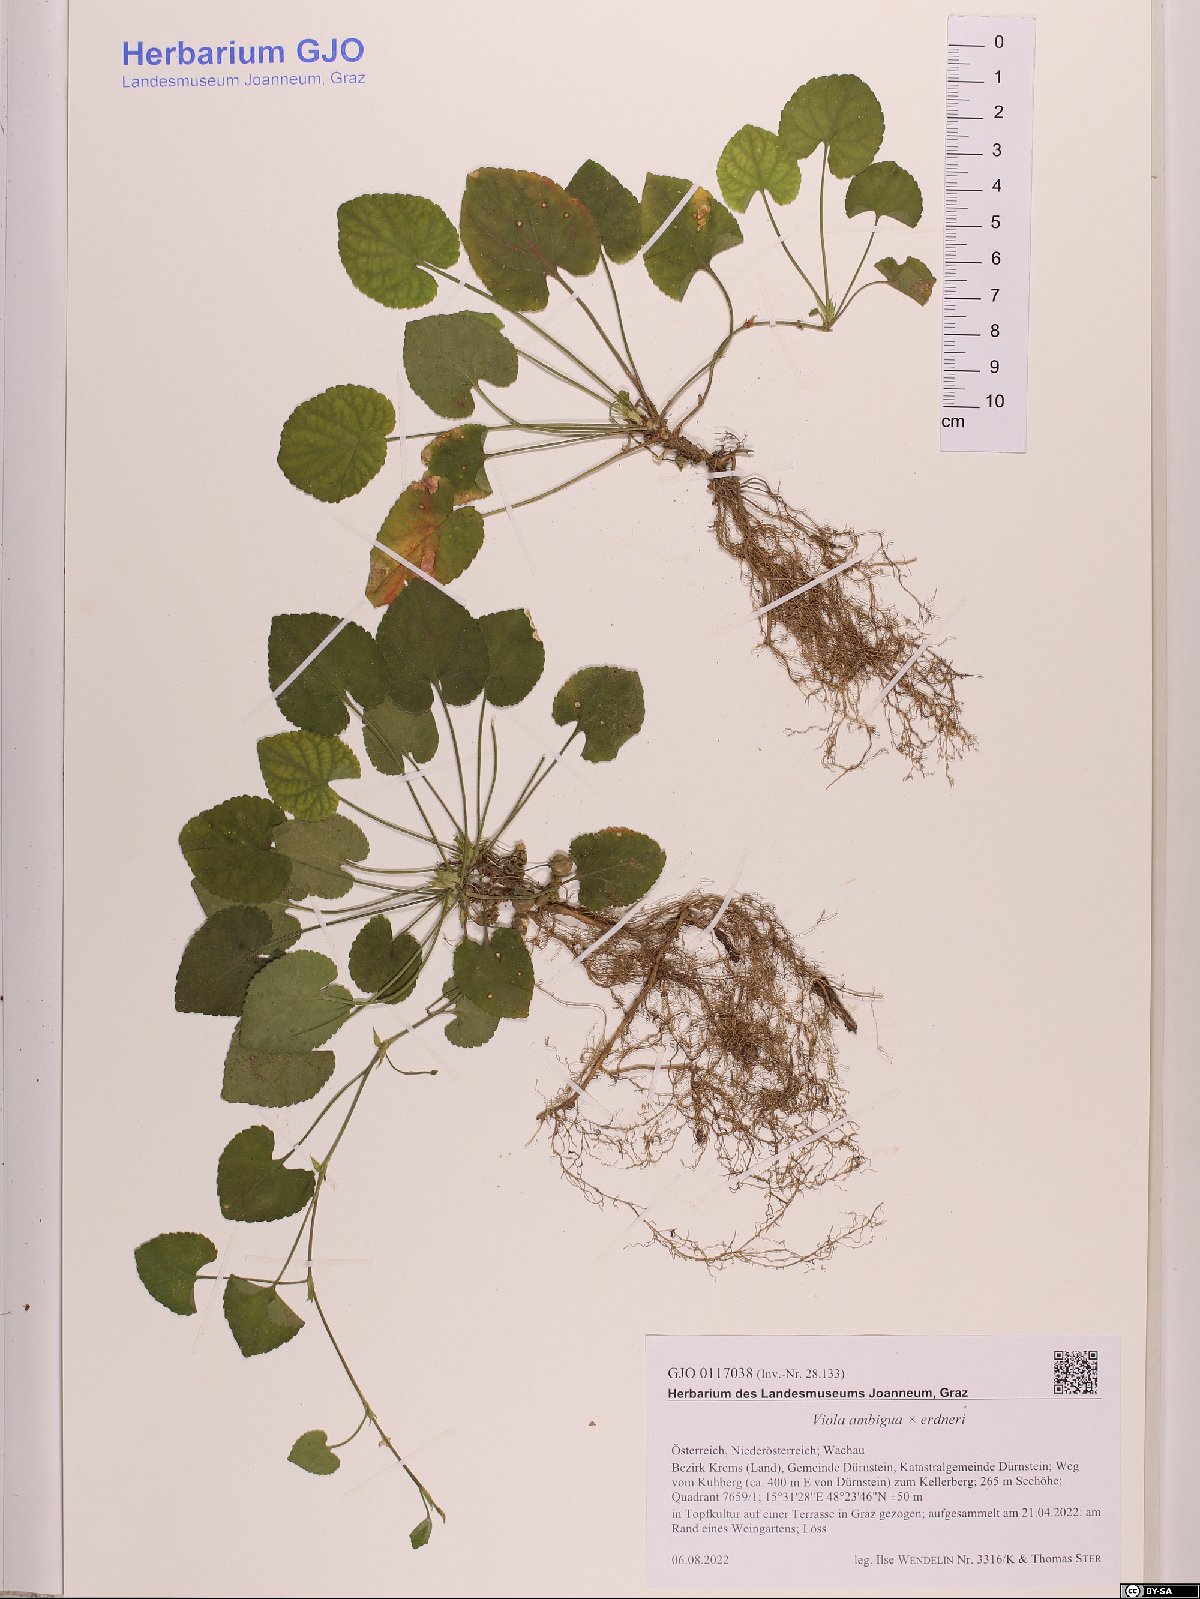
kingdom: Plantae
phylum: Tracheophyta
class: Magnoliopsida
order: Malpighiales
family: Violaceae
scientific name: Violaceae
